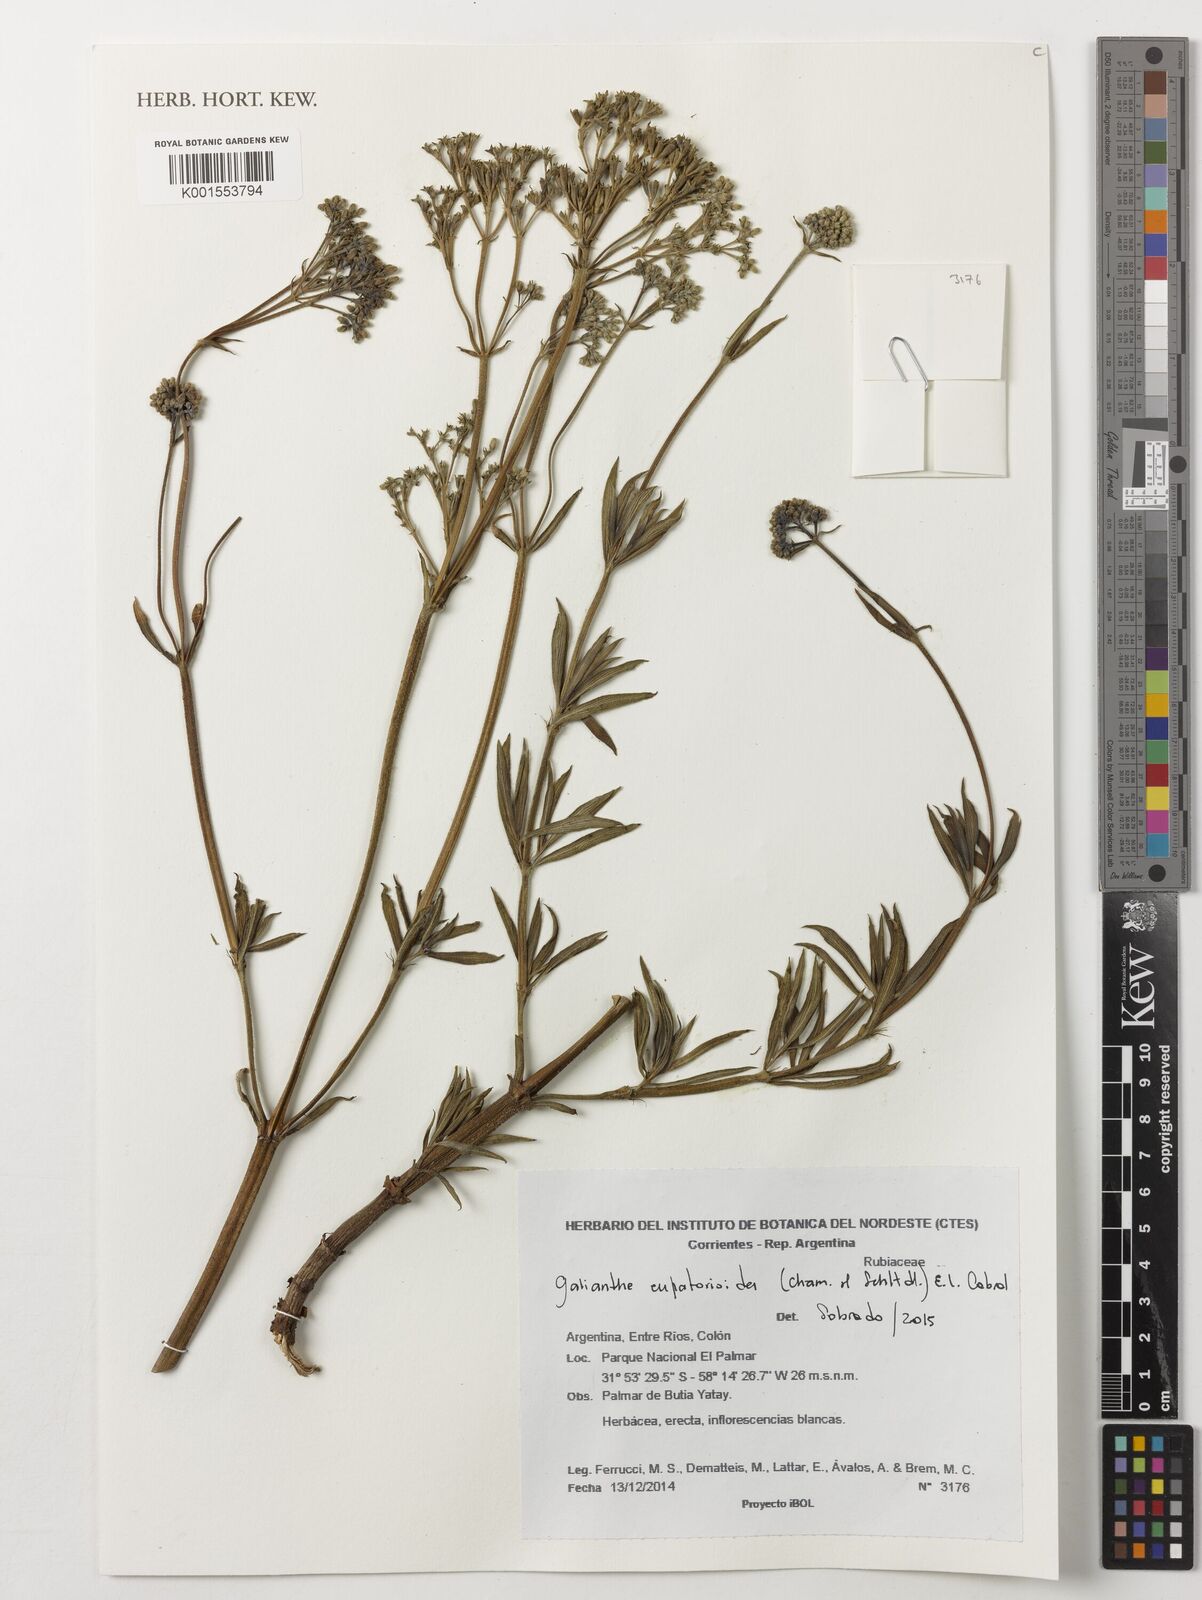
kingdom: Plantae
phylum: Tracheophyta
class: Magnoliopsida
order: Gentianales
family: Rubiaceae
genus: Galianthe
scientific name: Galianthe eupatorioides
